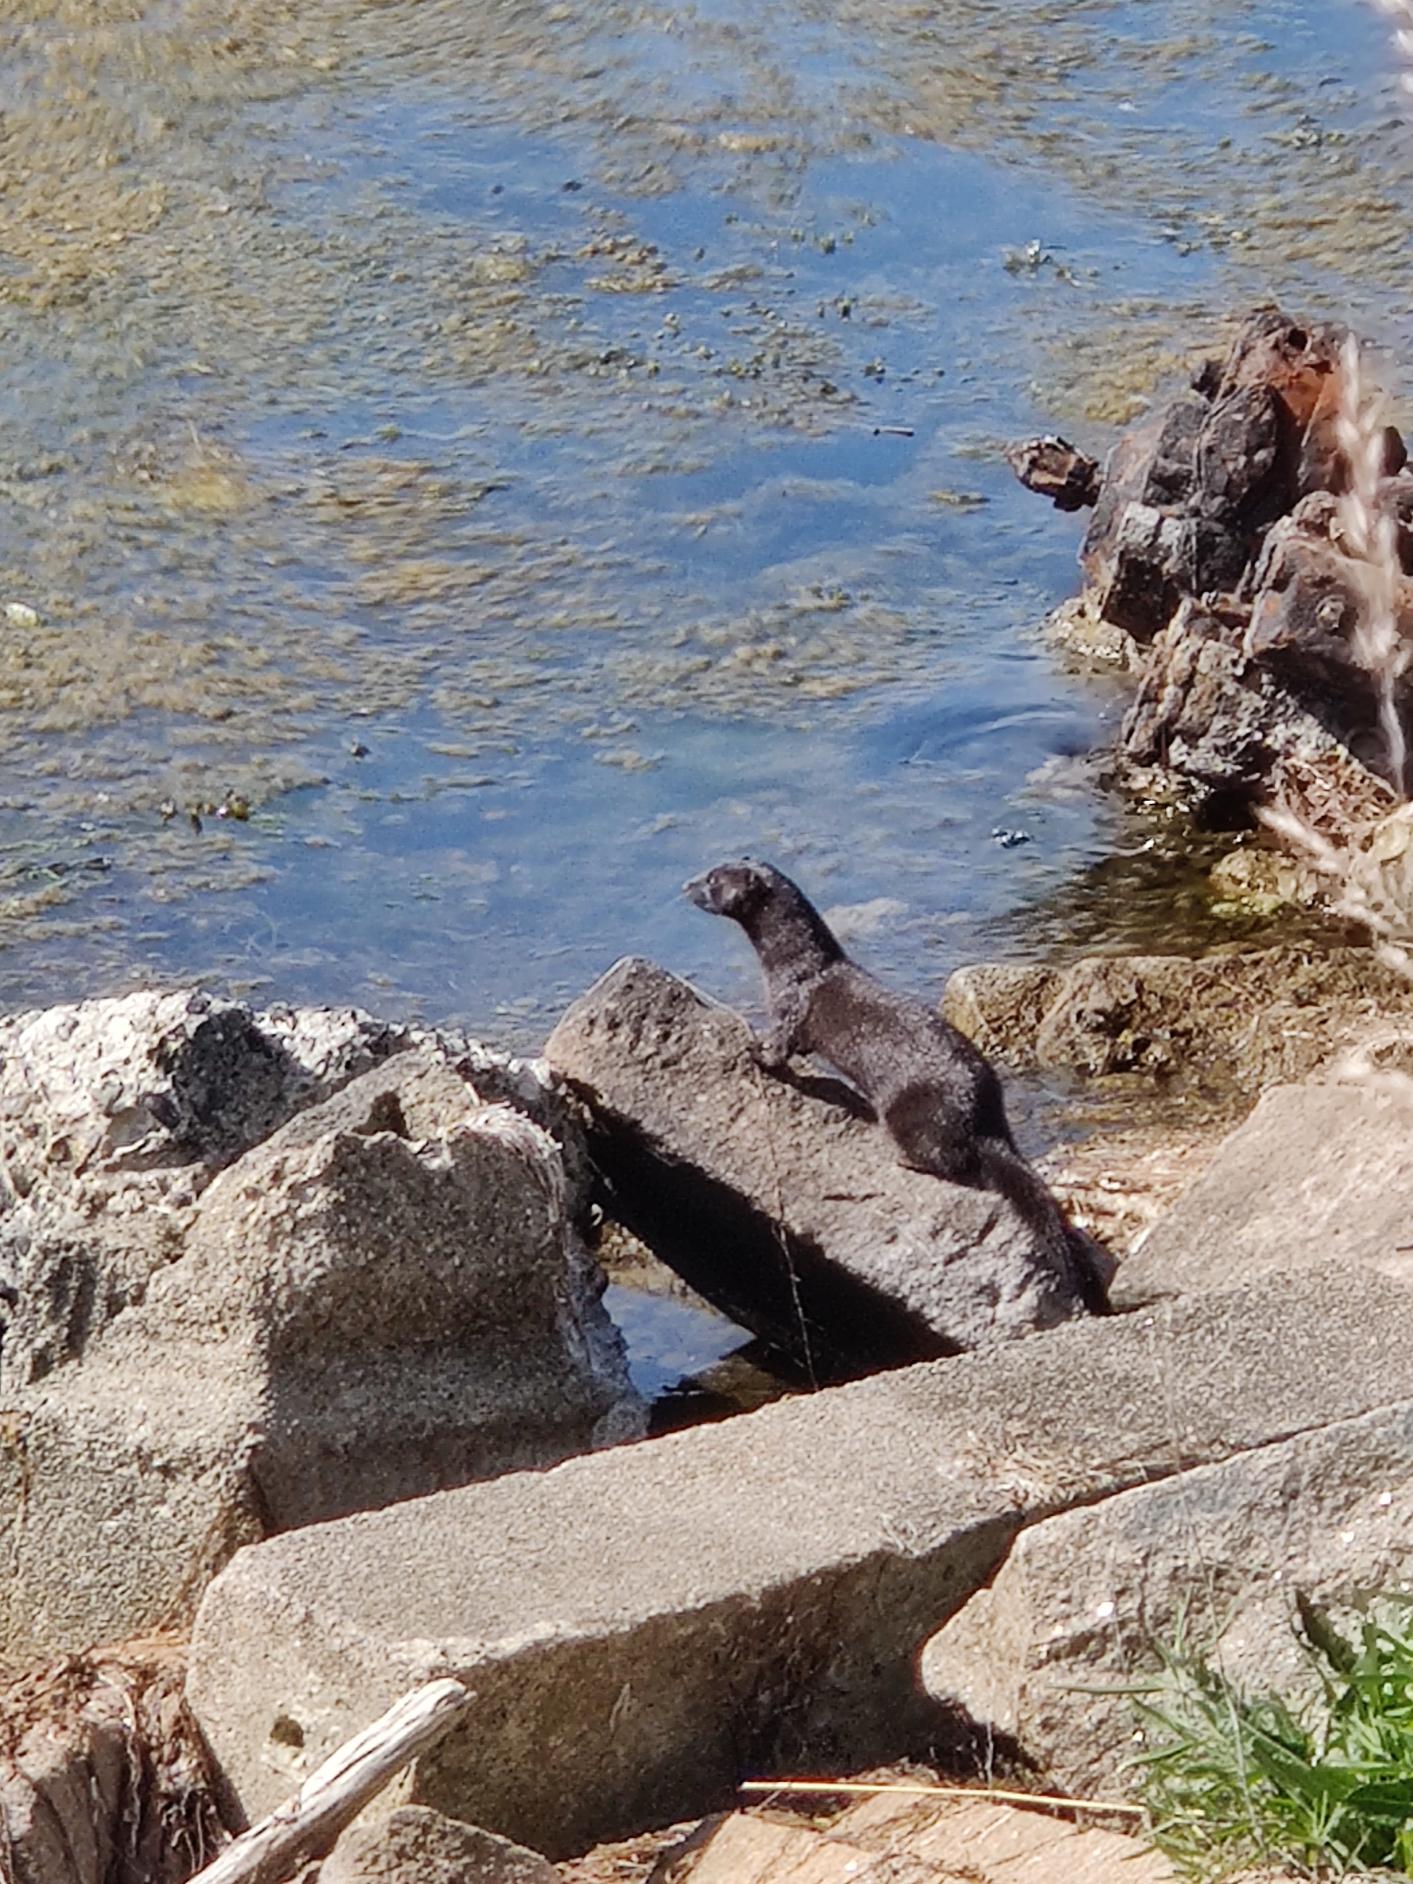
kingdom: Animalia
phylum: Chordata
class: Mammalia
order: Carnivora
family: Mustelidae
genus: Mustela
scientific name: Mustela vison
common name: Mink
